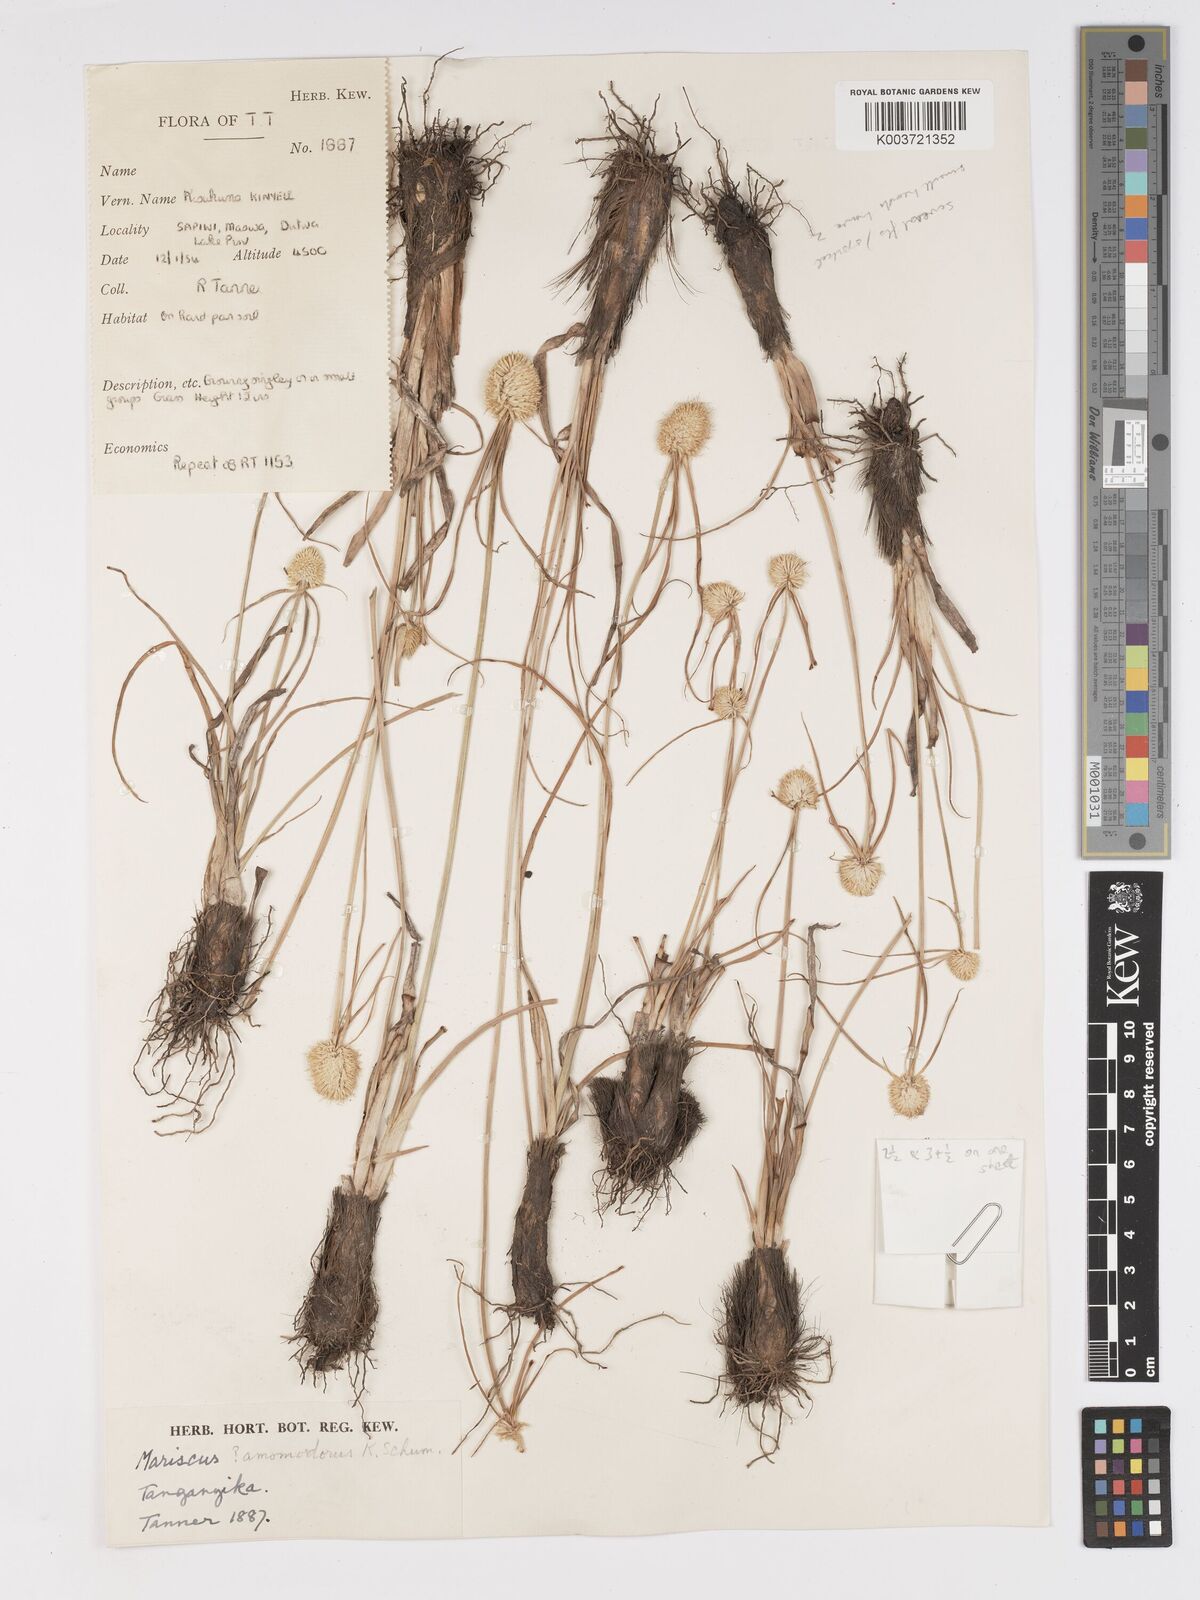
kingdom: Plantae
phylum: Tracheophyta
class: Liliopsida
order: Poales
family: Cyperaceae
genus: Cyperus
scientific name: Cyperus mollipes
